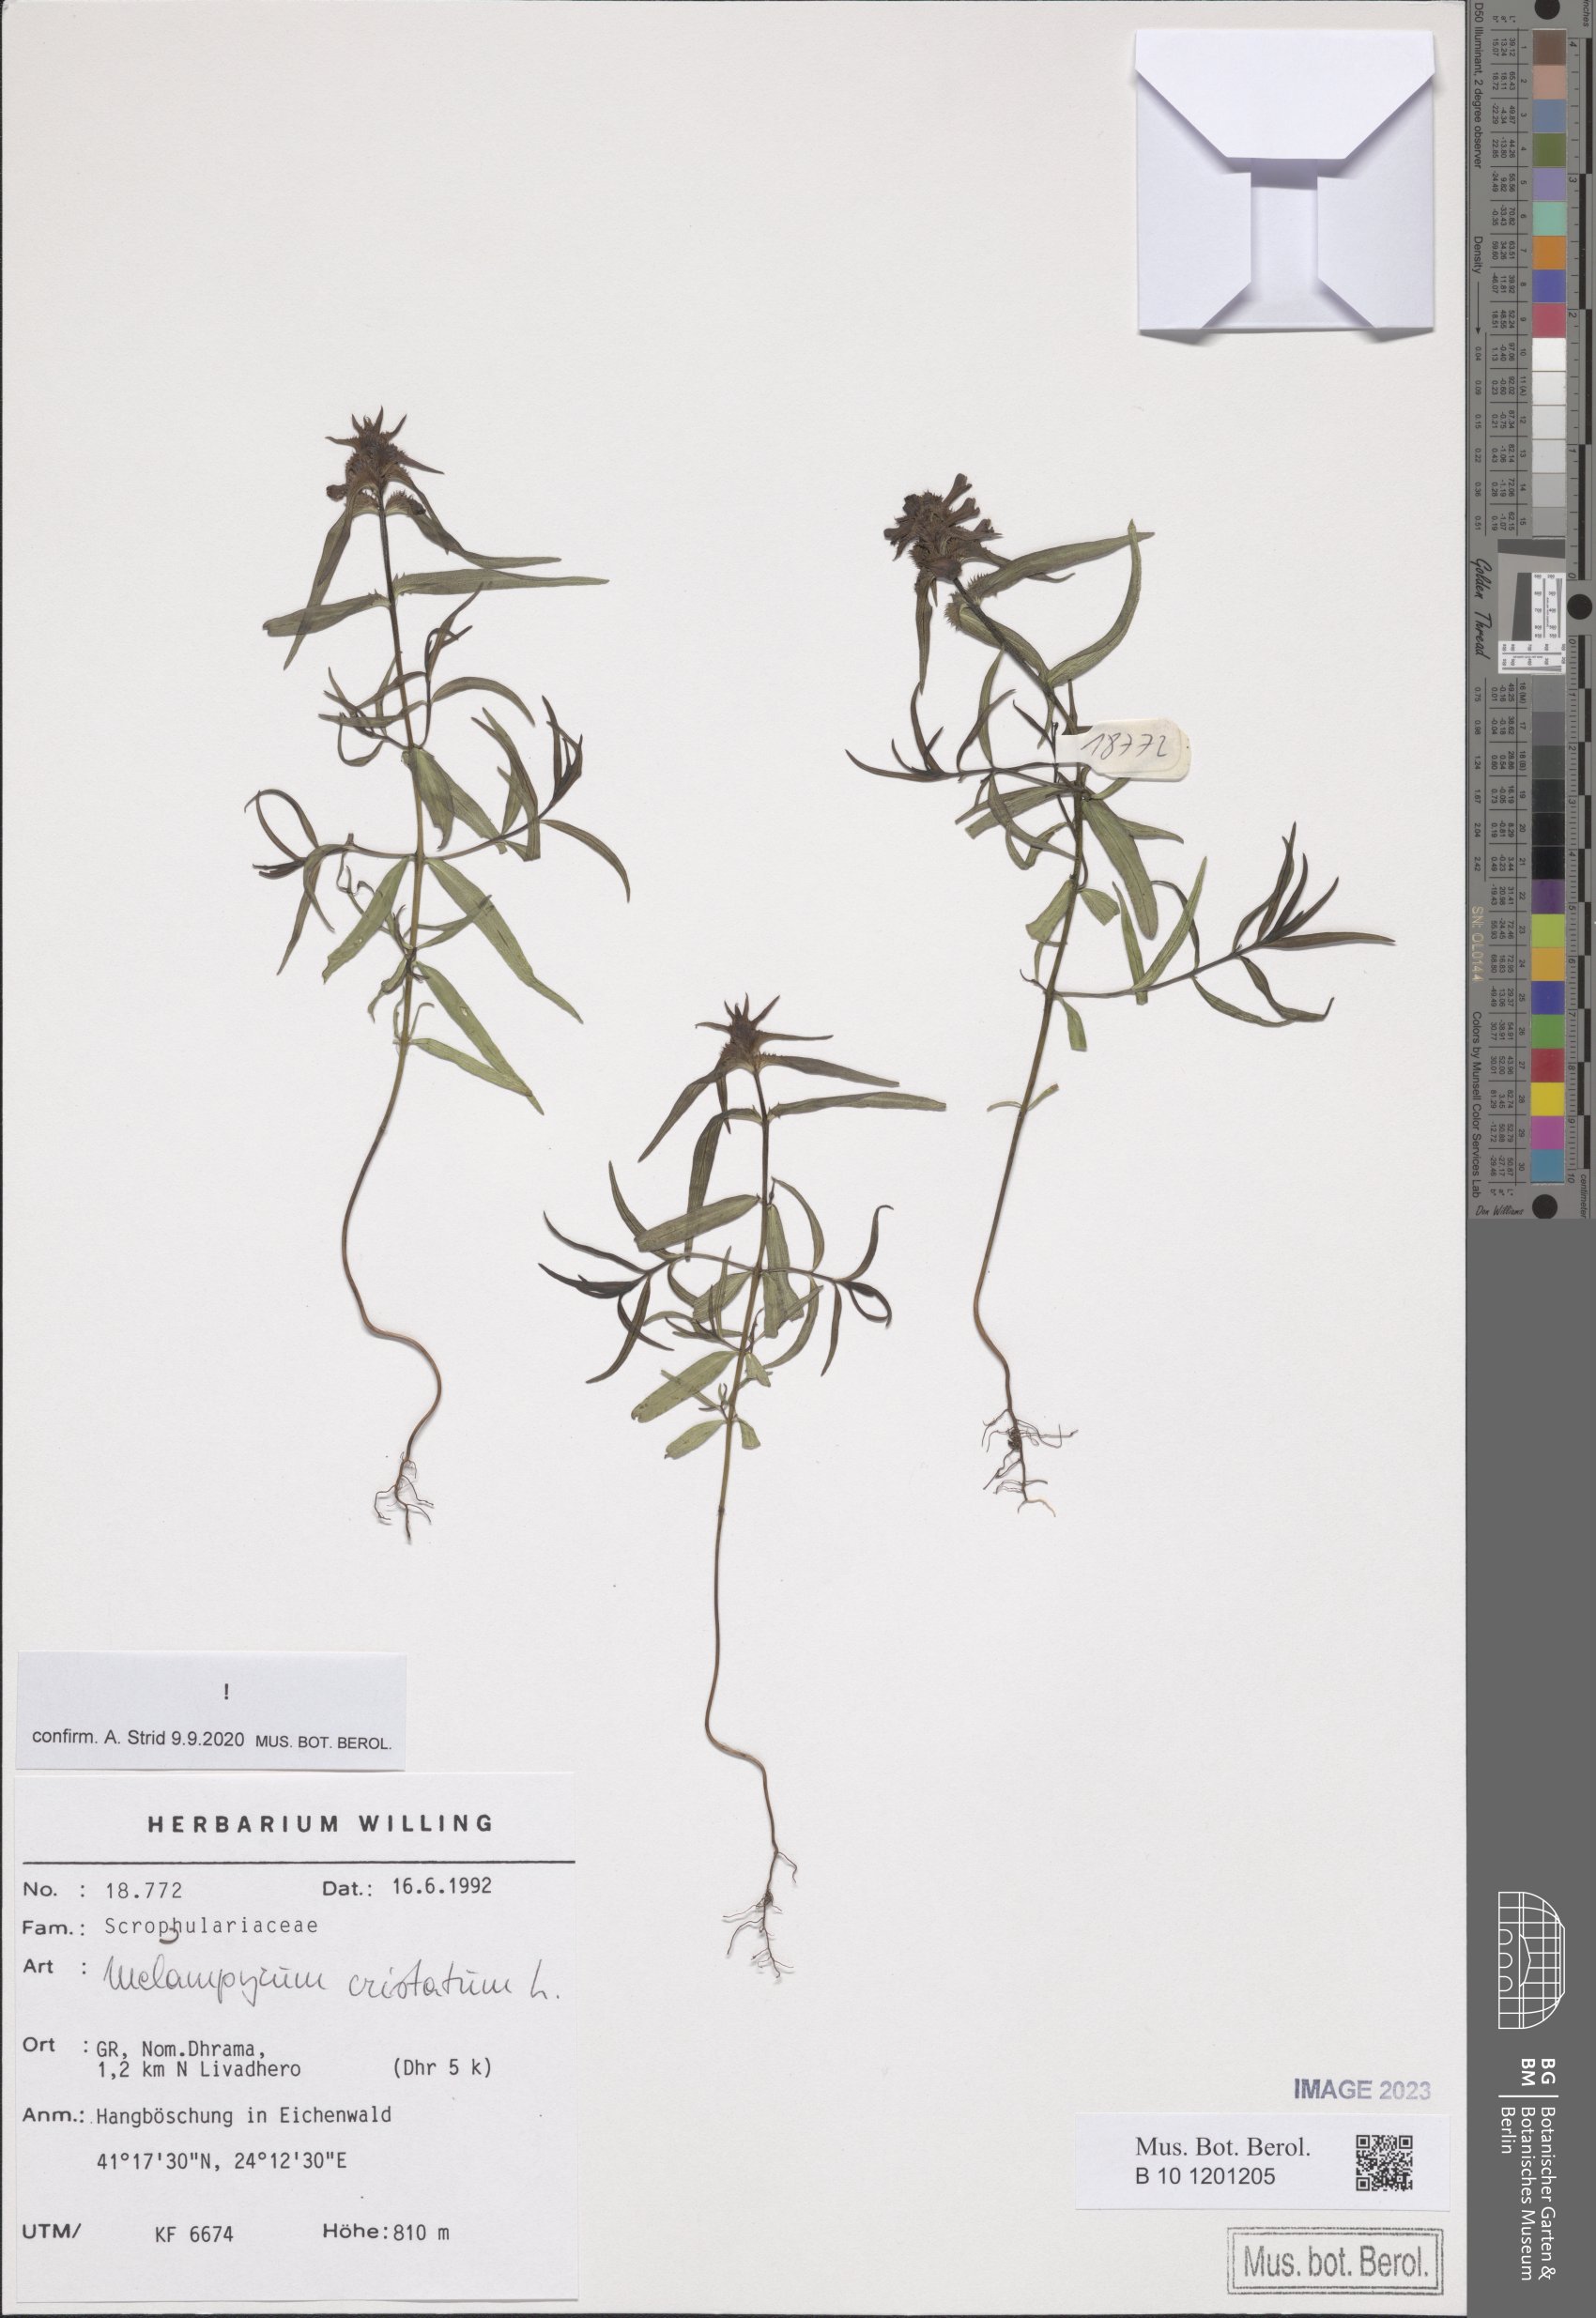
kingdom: Plantae
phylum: Tracheophyta
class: Magnoliopsida
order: Lamiales
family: Orobanchaceae
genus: Melampyrum
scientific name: Melampyrum cristatum
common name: Crested cow-wheat
